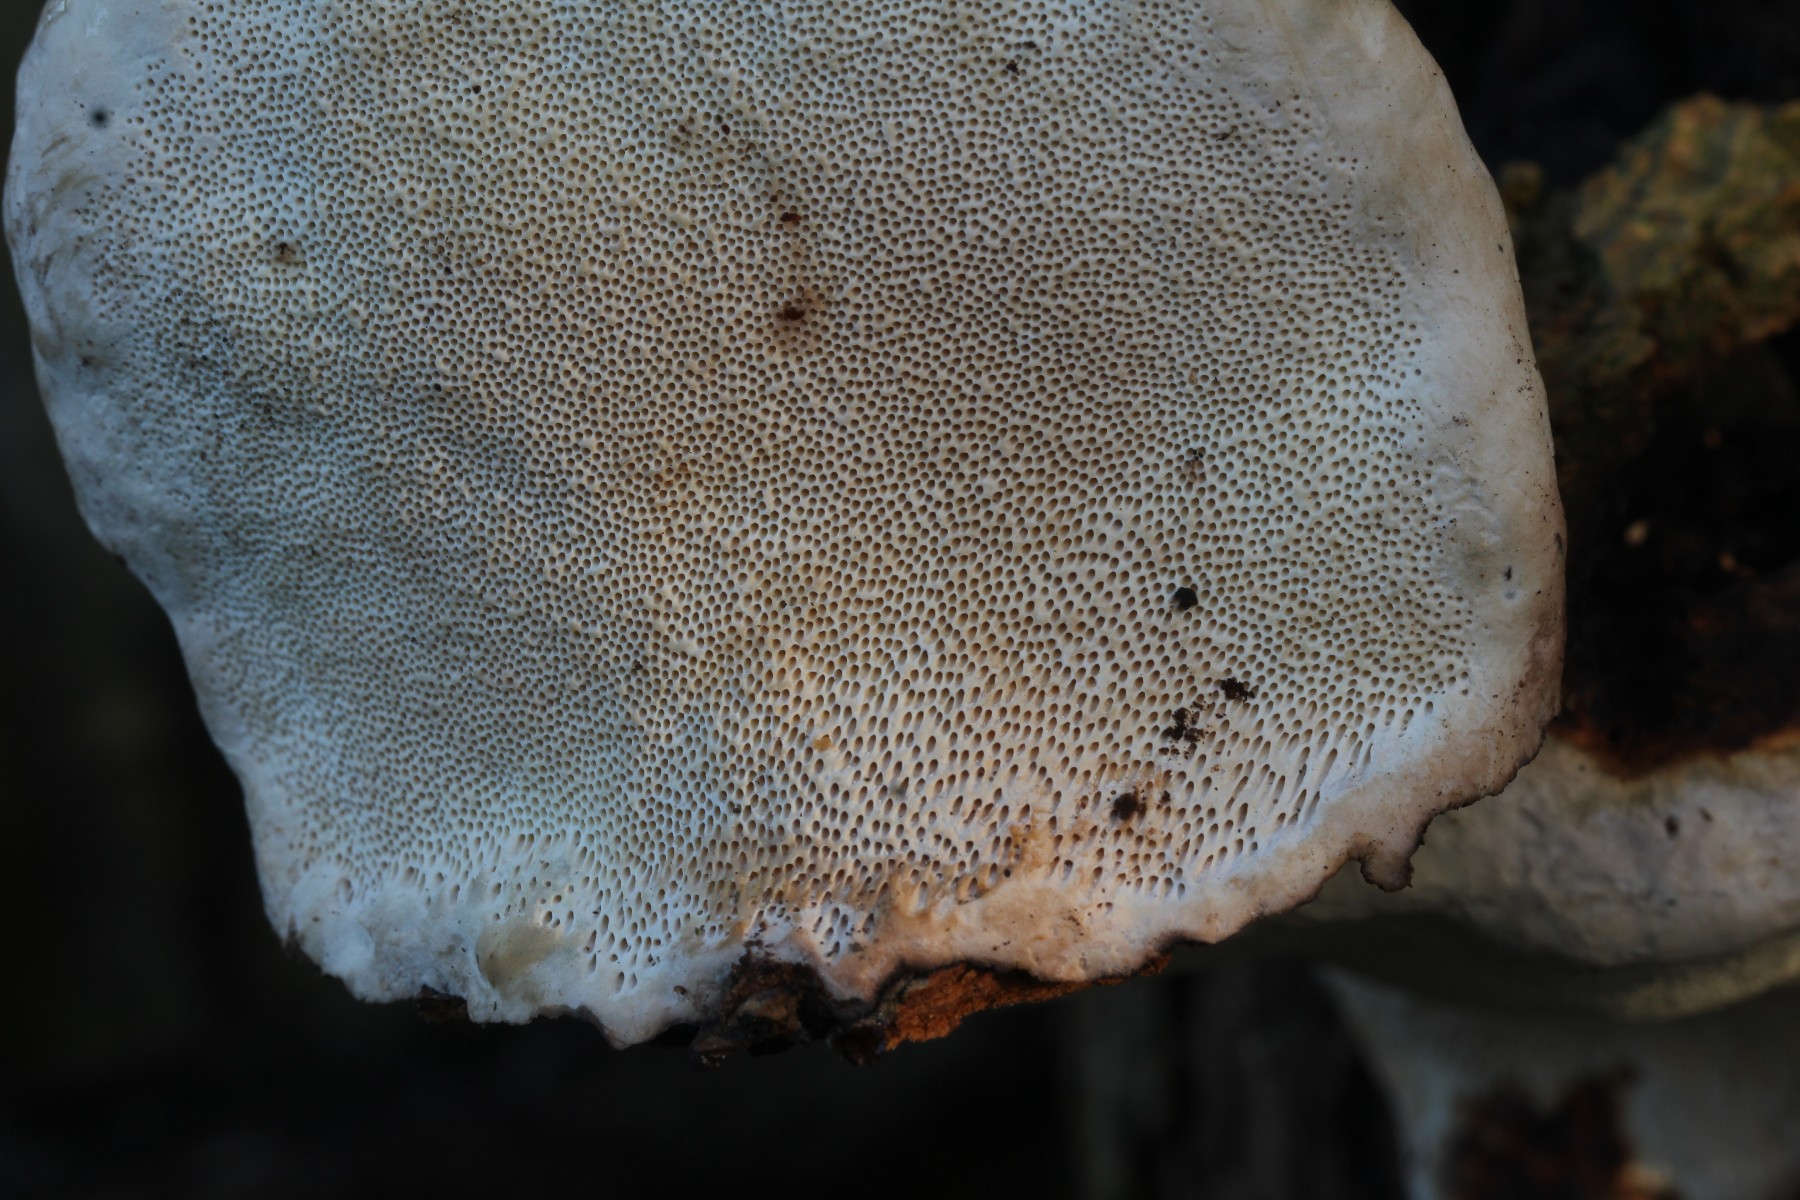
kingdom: Fungi
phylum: Basidiomycota
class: Agaricomycetes
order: Polyporales
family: Fomitopsidaceae
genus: Fomitopsis
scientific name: Fomitopsis pinicola
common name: randbæltet hovporesvamp
